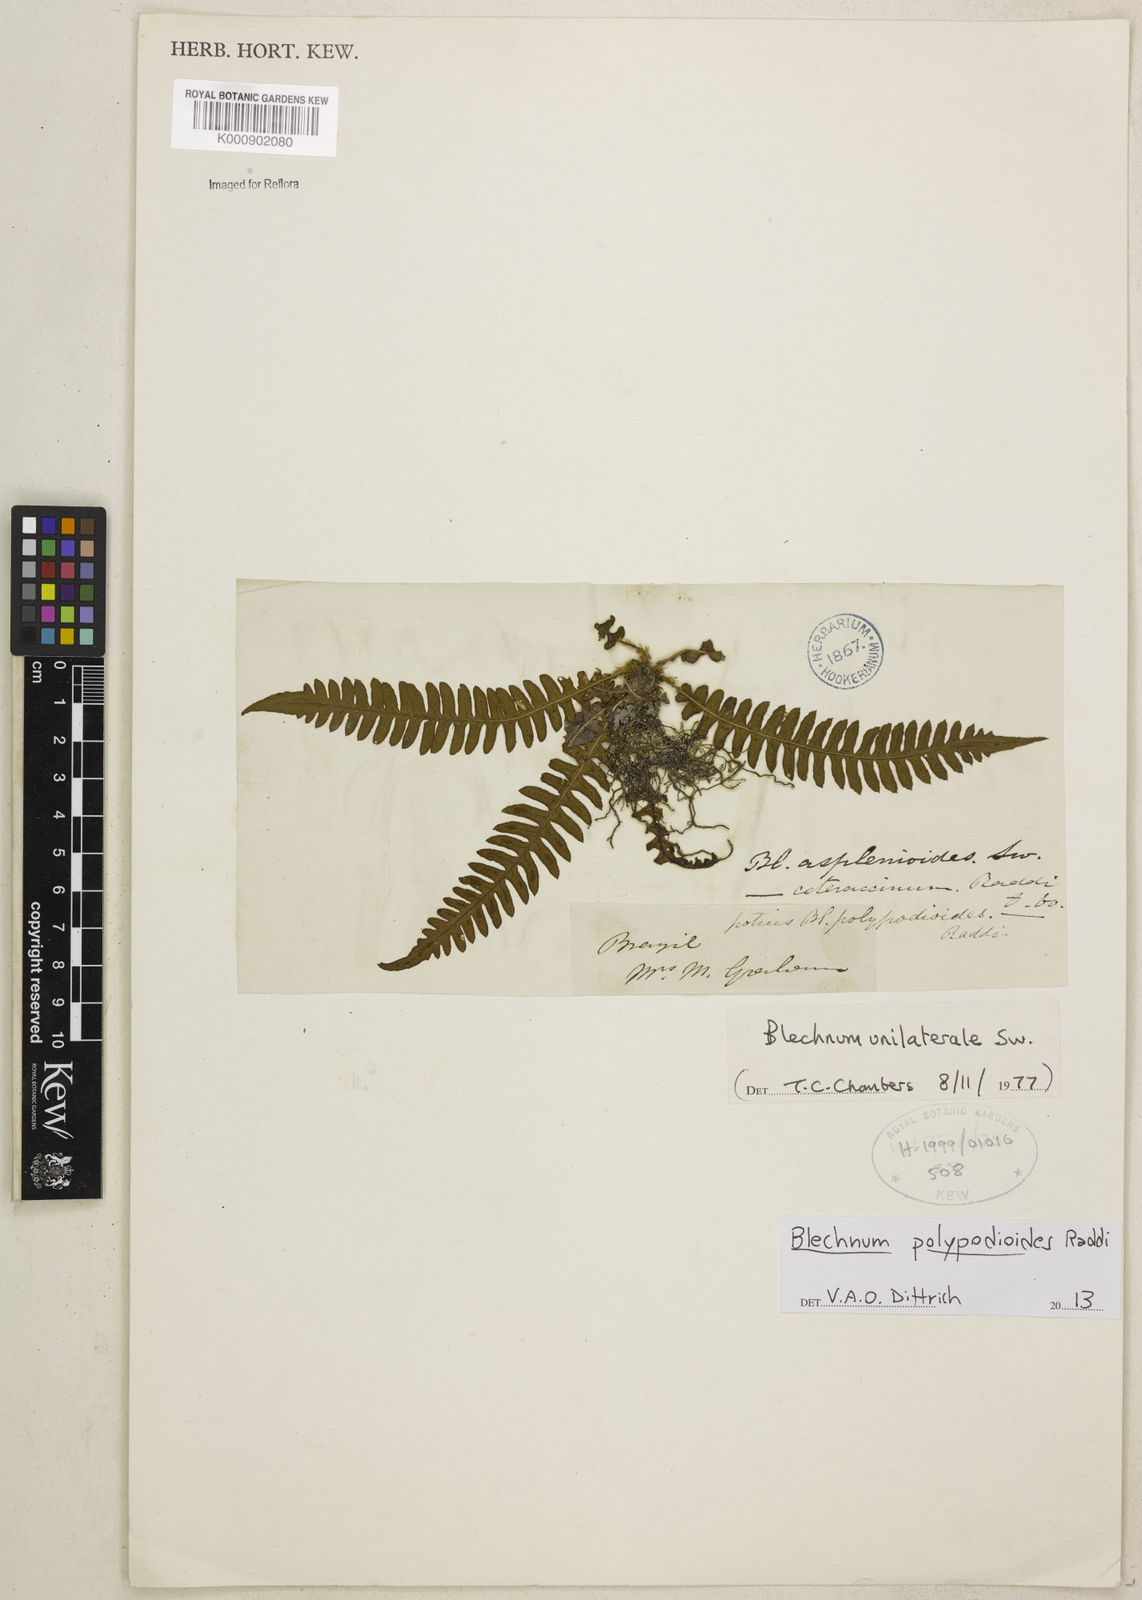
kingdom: Plantae
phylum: Tracheophyta
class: Polypodiopsida
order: Polypodiales
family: Blechnaceae
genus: Blechnum
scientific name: Blechnum polypodioides
